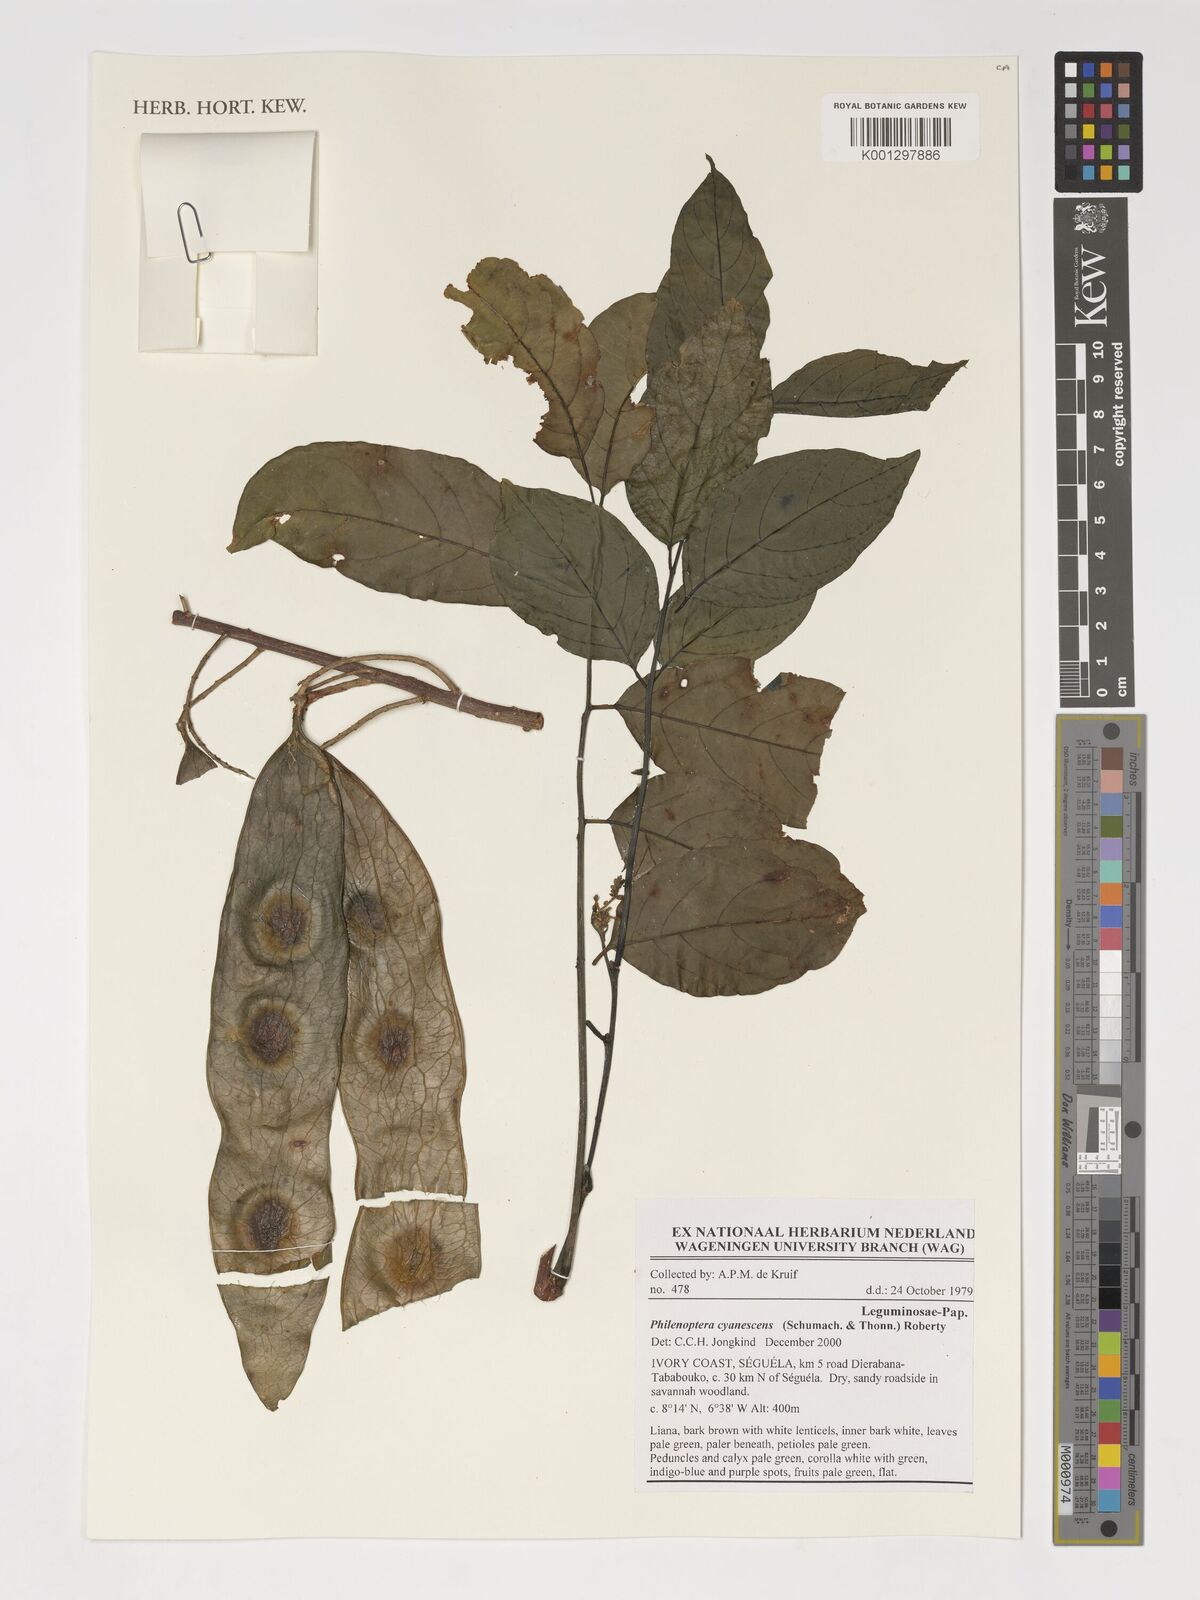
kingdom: Plantae
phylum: Tracheophyta
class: Magnoliopsida
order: Fabales
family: Fabaceae
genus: Philenoptera
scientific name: Philenoptera cyanescens
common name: West african-indigo
